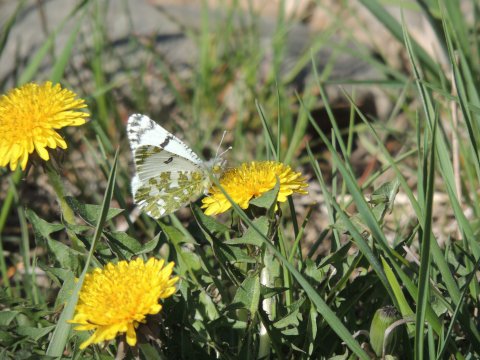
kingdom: Animalia
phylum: Arthropoda
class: Insecta
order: Lepidoptera
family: Pieridae
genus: Euchloe
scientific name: Euchloe lotta
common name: Desert Marble
